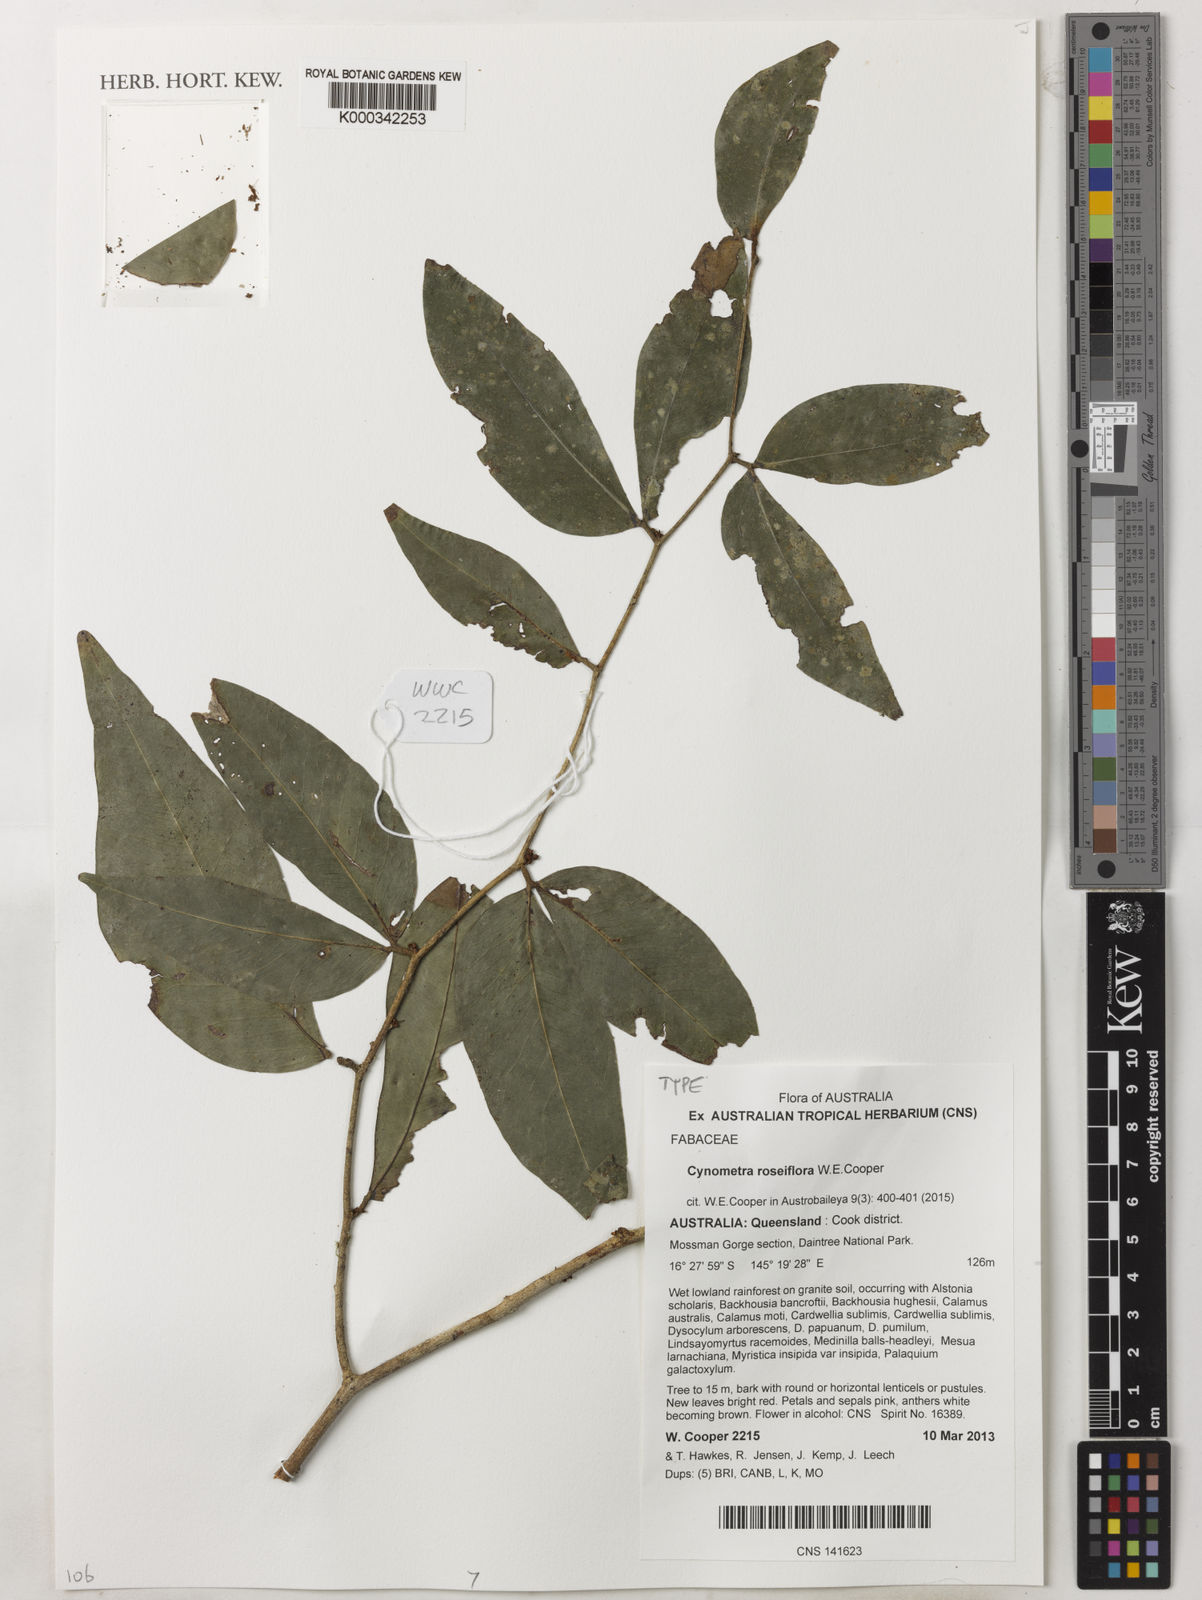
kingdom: Plantae
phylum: Tracheophyta
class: Magnoliopsida
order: Fabales
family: Fabaceae
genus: Cynometra
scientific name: Cynometra roseiflora
